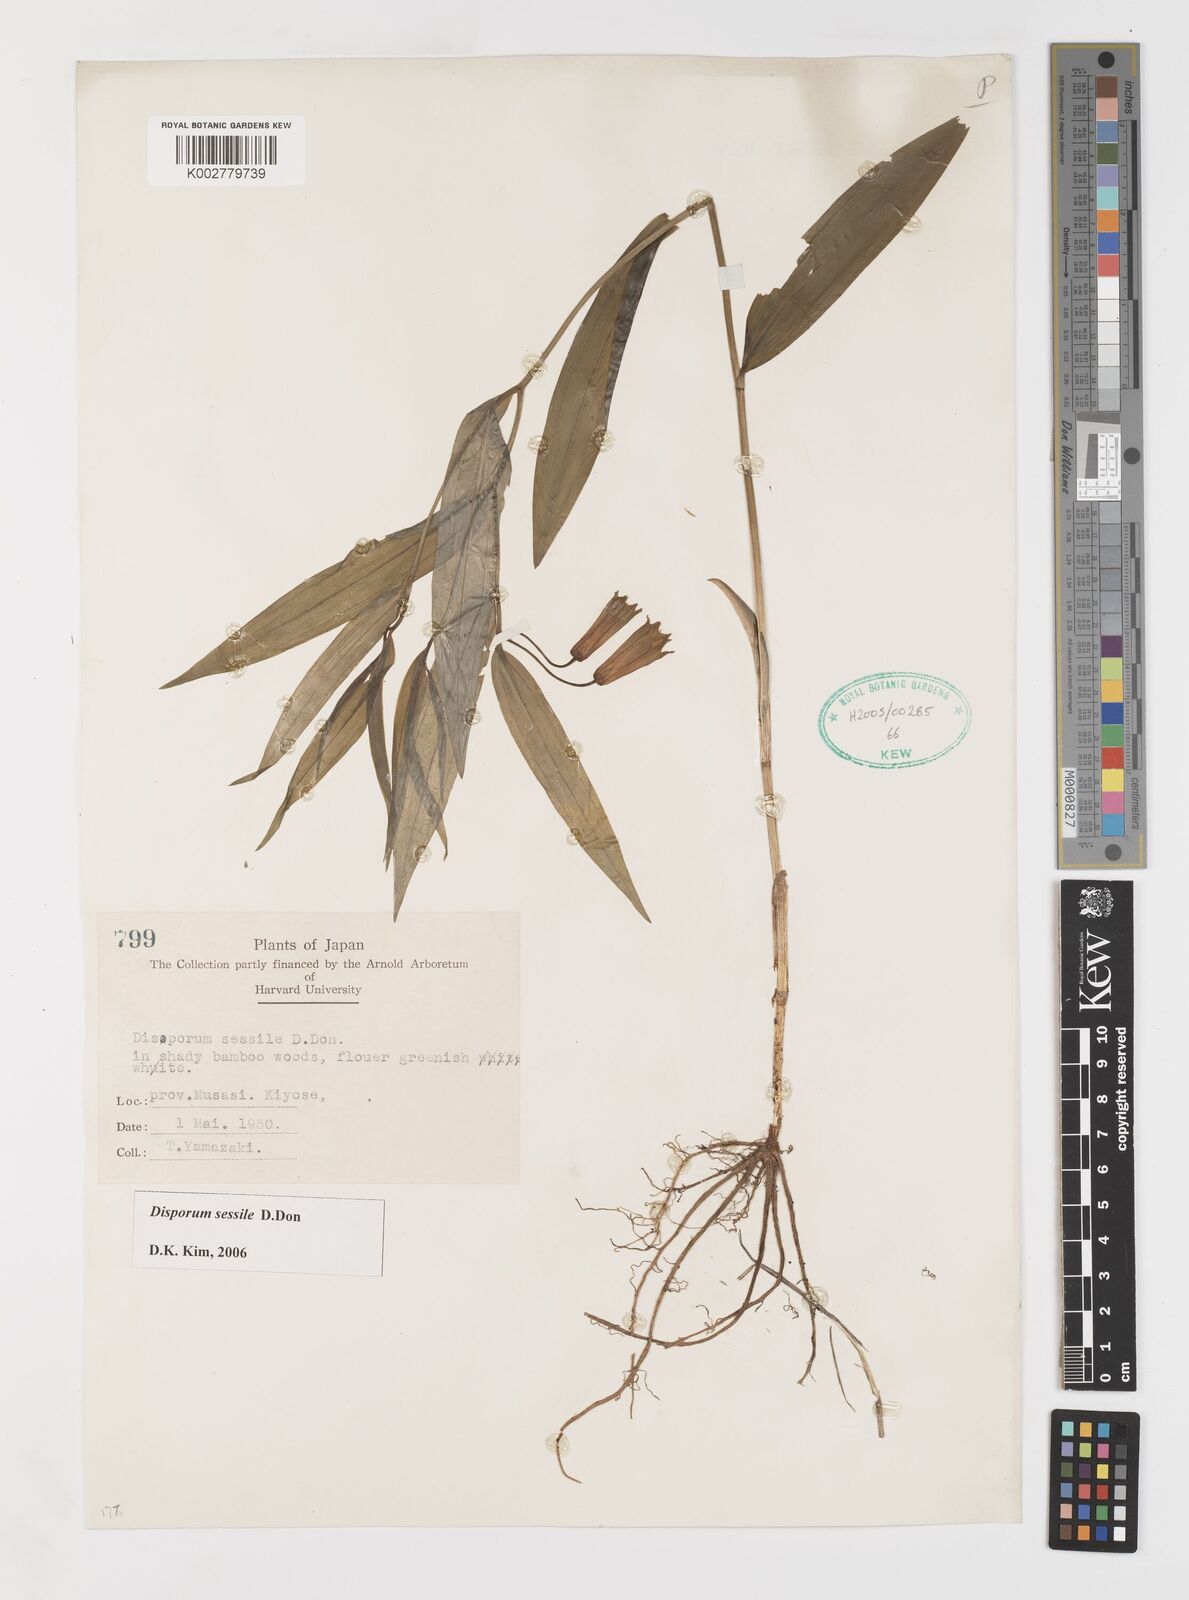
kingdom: Plantae
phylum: Tracheophyta
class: Liliopsida
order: Liliales
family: Colchicaceae
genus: Disporum
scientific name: Disporum sessile
